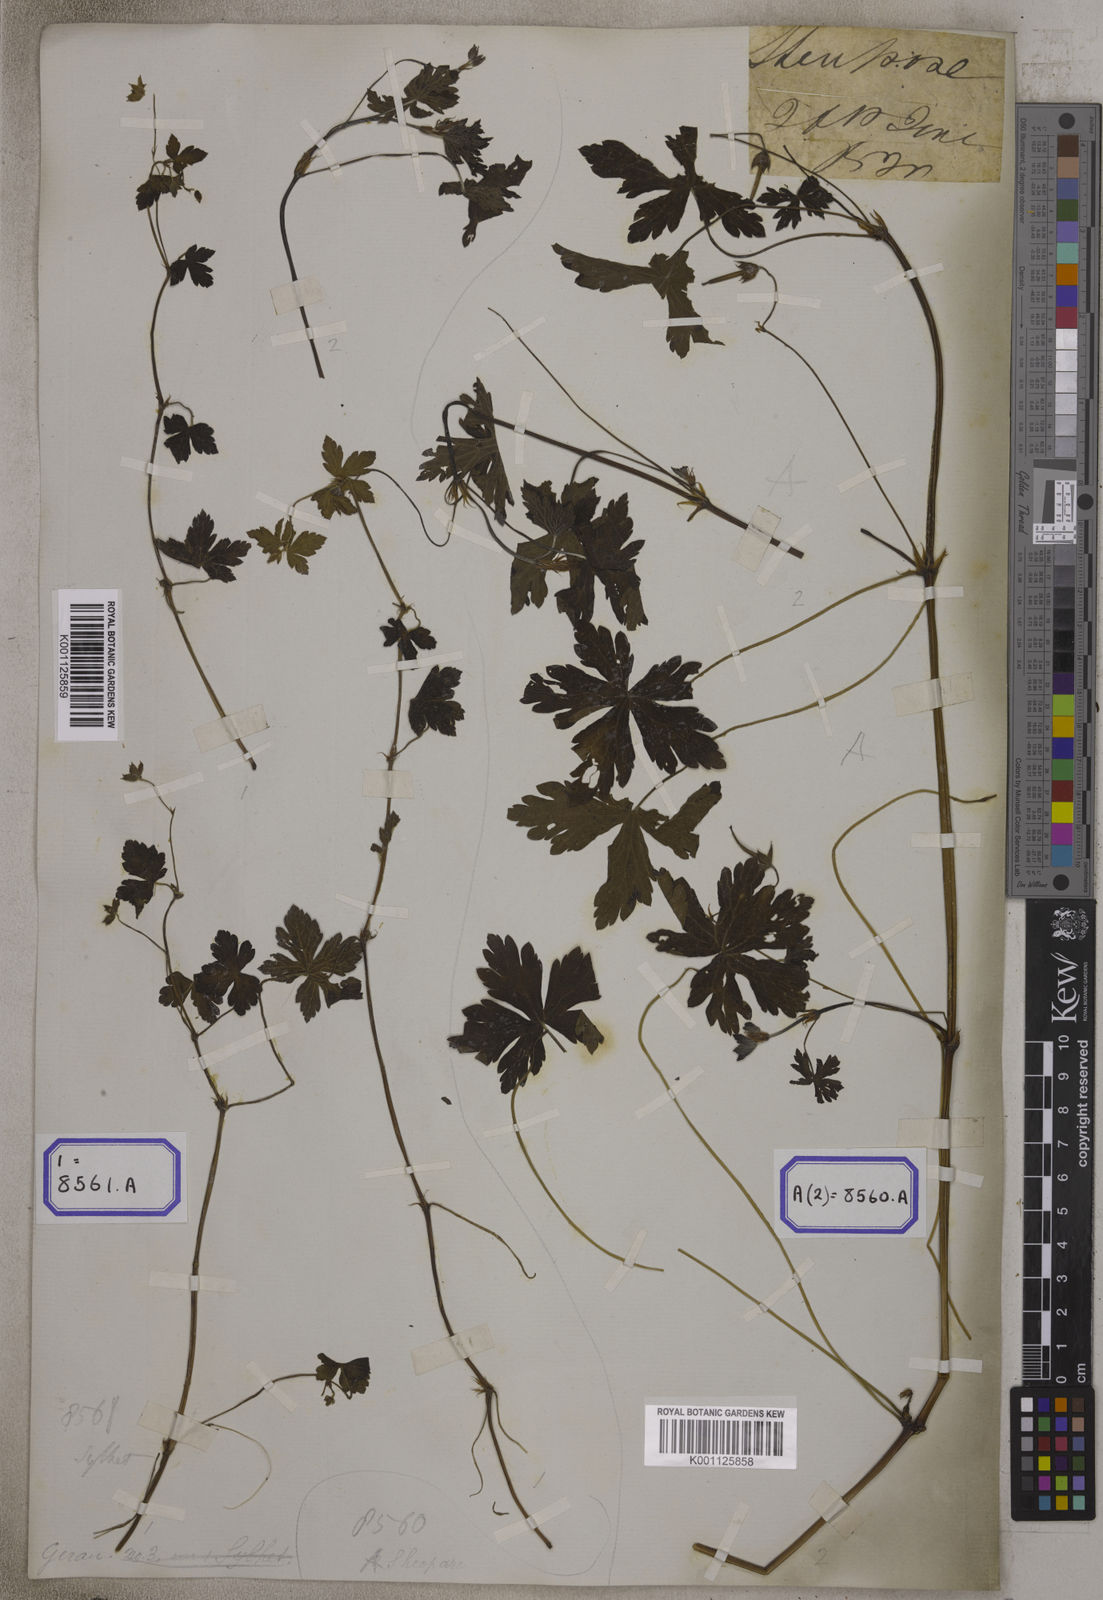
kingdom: Plantae
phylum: Tracheophyta
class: Magnoliopsida
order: Geraniales
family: Geraniaceae
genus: Geranium
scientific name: Geranium nepalense
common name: Nepalese crane's-bill
